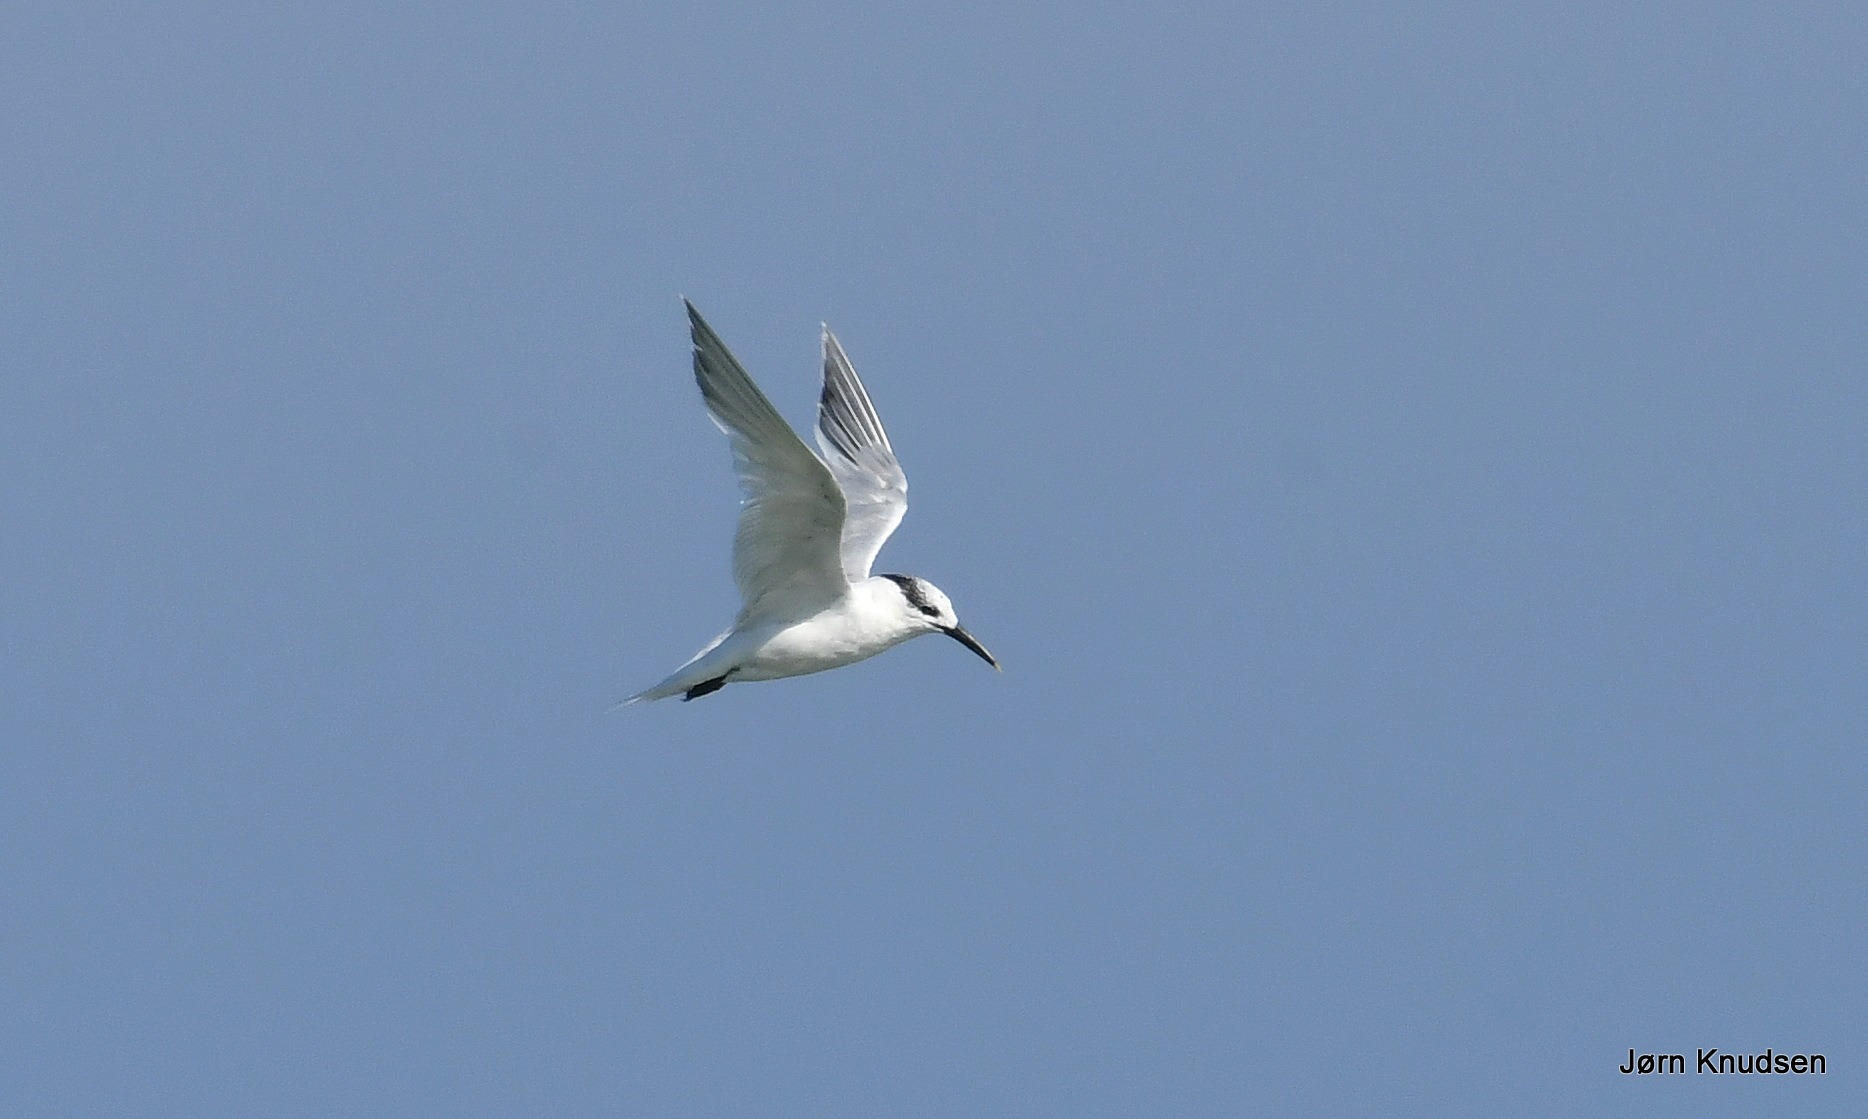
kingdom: Animalia
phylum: Chordata
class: Aves
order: Charadriiformes
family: Laridae
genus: Thalasseus
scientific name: Thalasseus sandvicensis
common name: Splitterne
